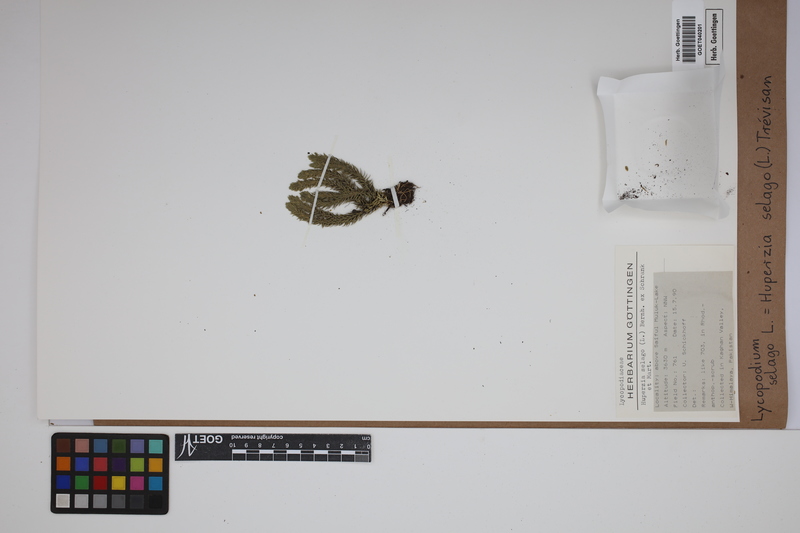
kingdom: Plantae
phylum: Tracheophyta
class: Lycopodiopsida
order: Lycopodiales
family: Lycopodiaceae
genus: Huperzia
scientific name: Huperzia selago
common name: Northern firmoss
